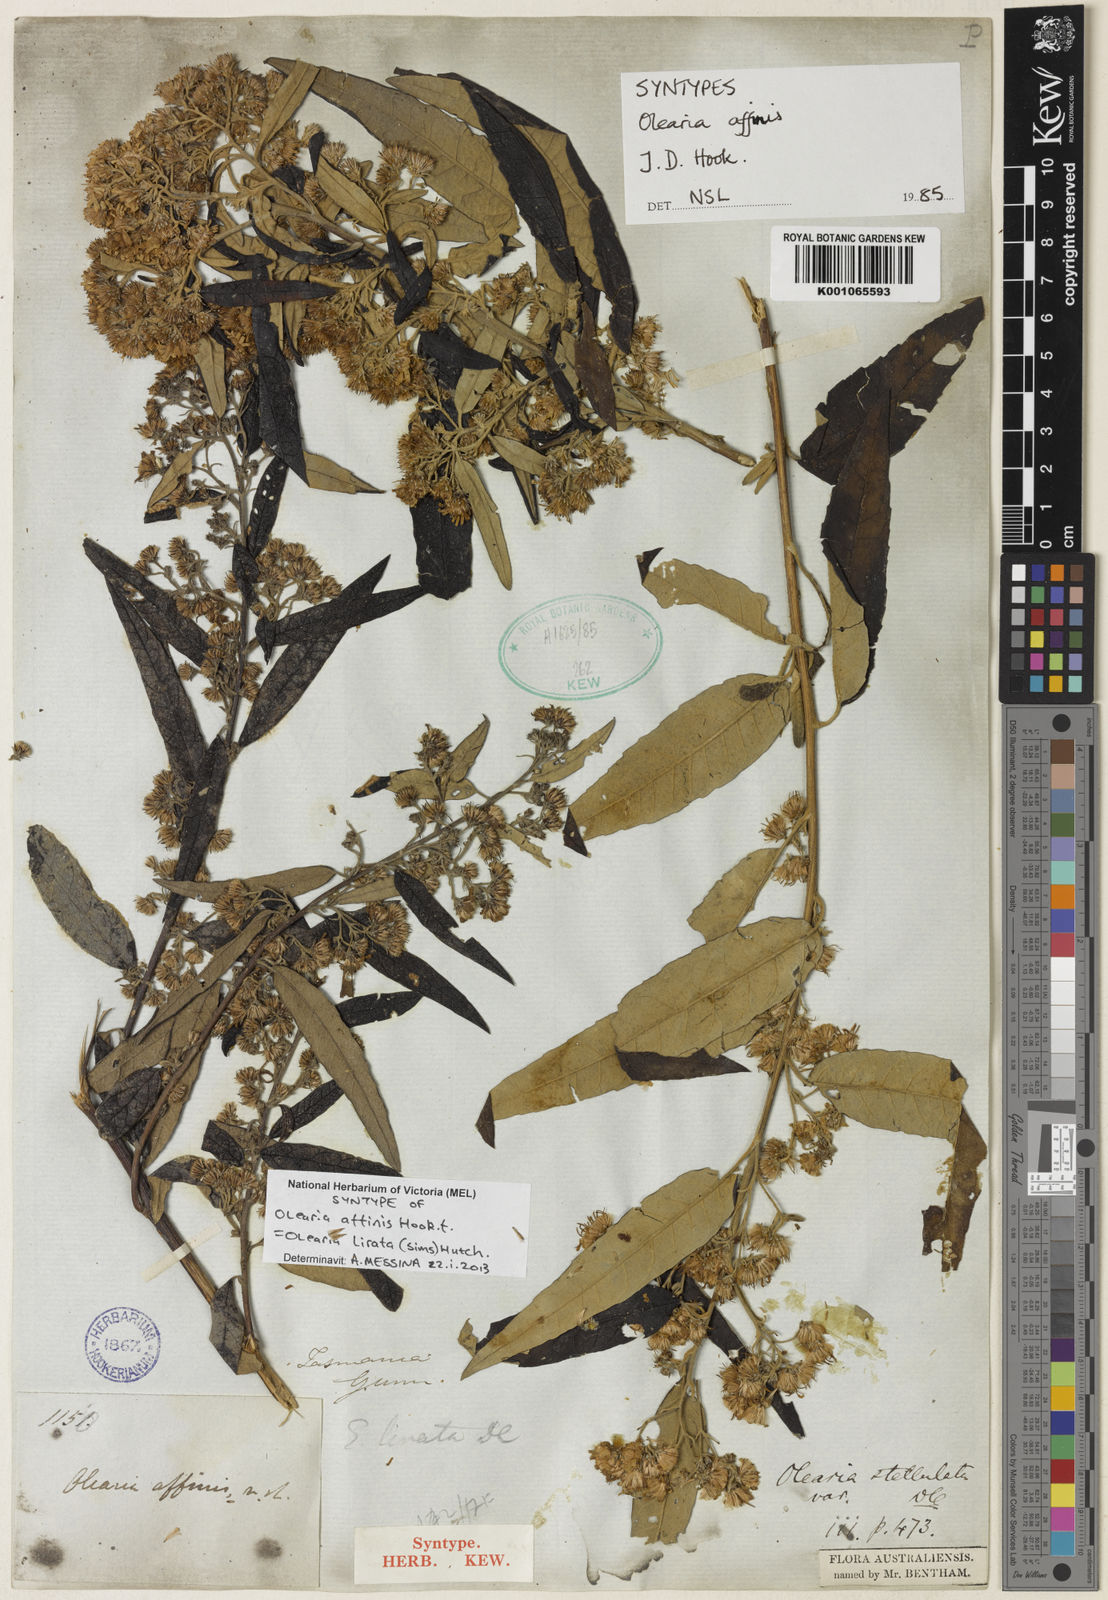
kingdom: Plantae
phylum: Tracheophyta
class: Magnoliopsida
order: Asterales
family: Asteraceae
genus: Olearia
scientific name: Olearia lirata
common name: Dusty daisybush
